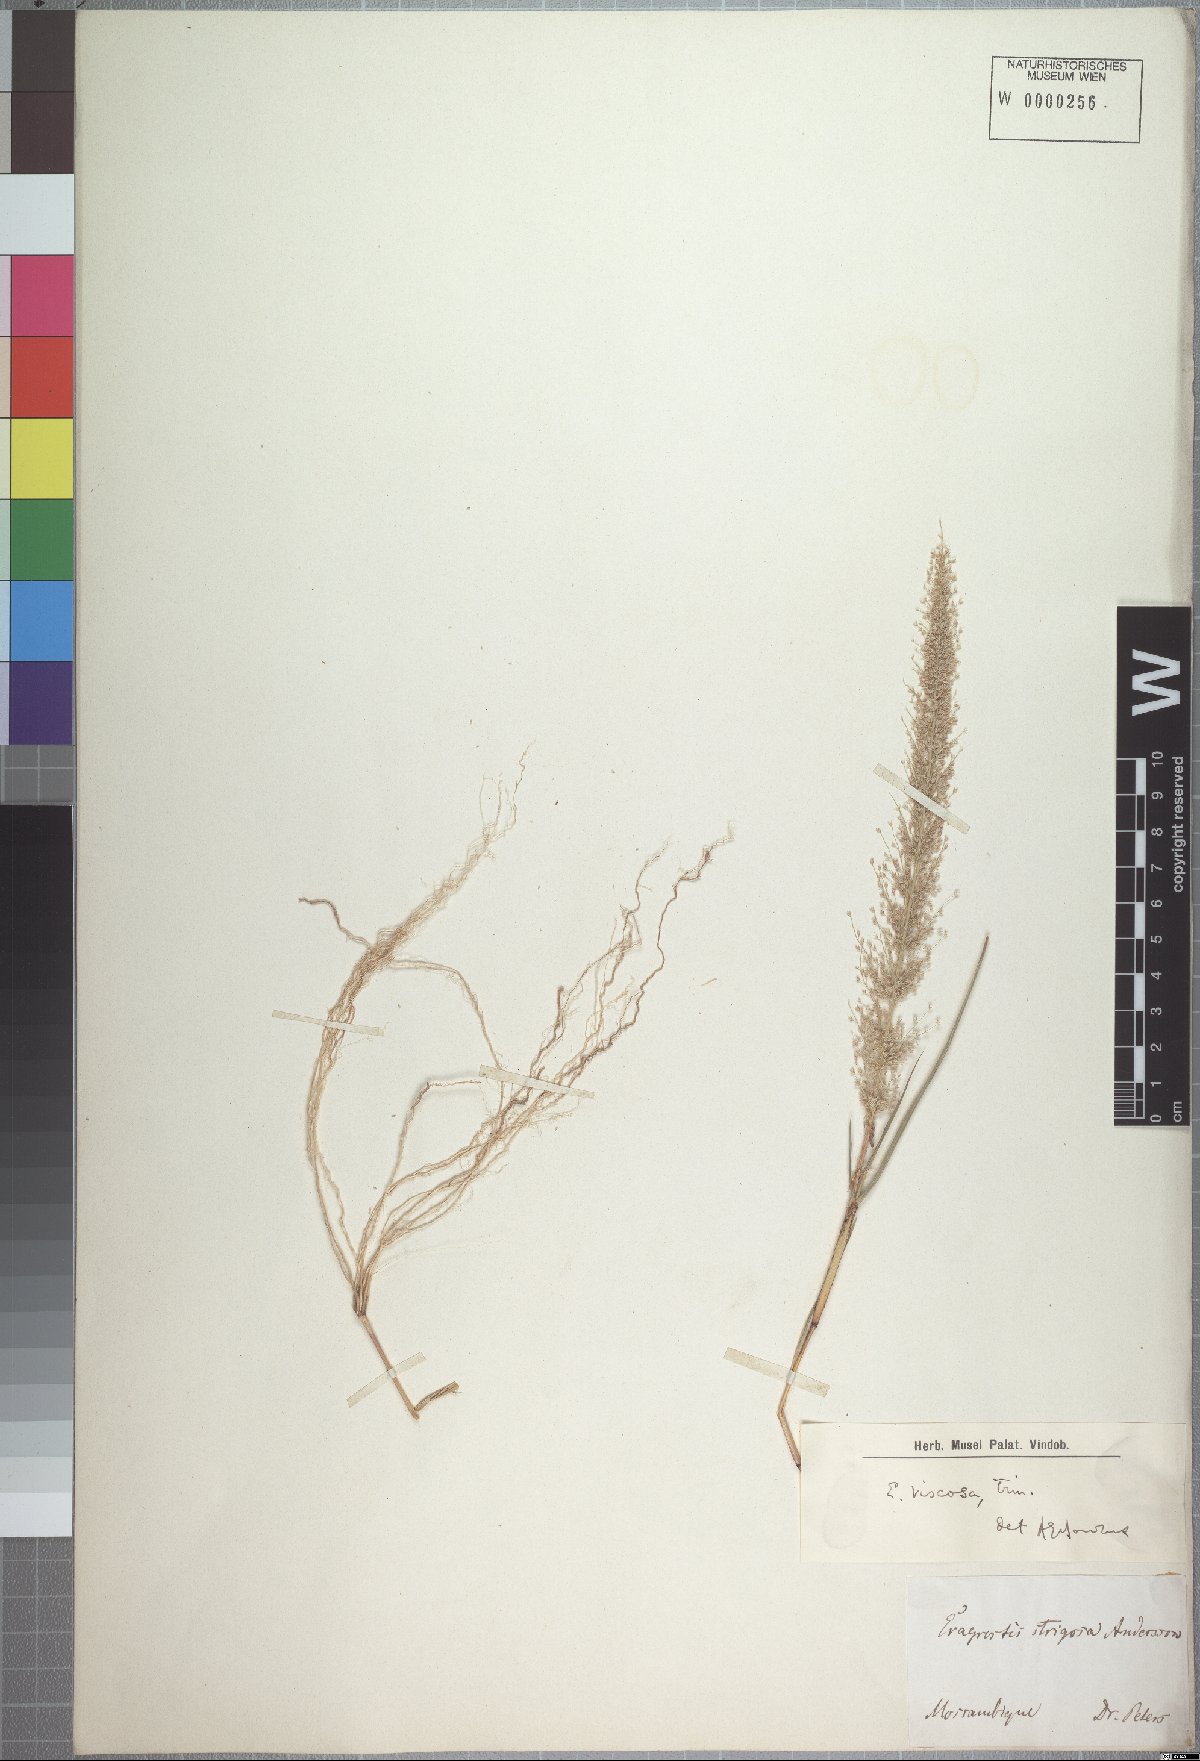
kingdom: Plantae
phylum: Tracheophyta
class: Liliopsida
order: Poales
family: Poaceae
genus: Eragrostis
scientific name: Eragrostis viscosa
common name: Sticky love grass
